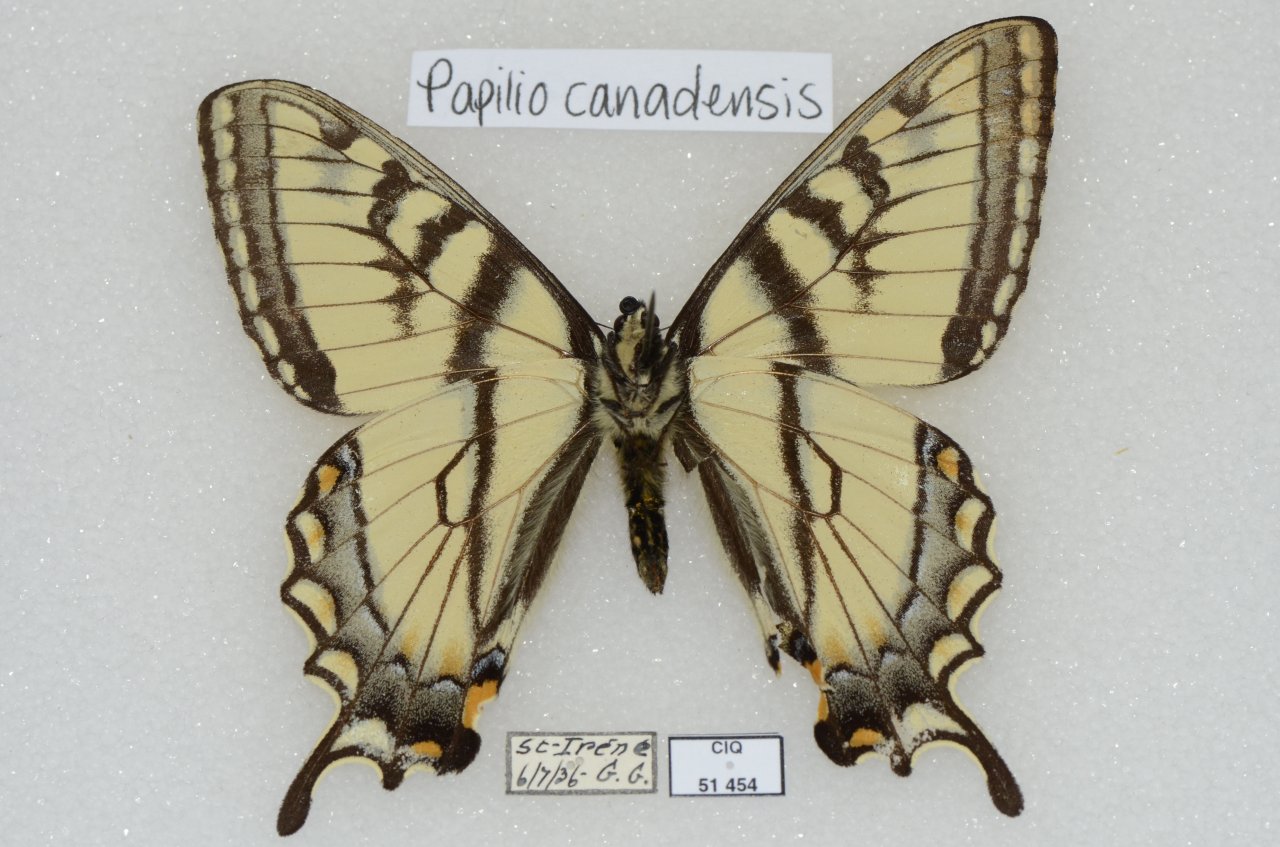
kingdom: Animalia
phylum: Arthropoda
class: Insecta
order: Lepidoptera
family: Papilionidae
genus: Pterourus
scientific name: Pterourus canadensis
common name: Canadian Tiger Swallowtail
